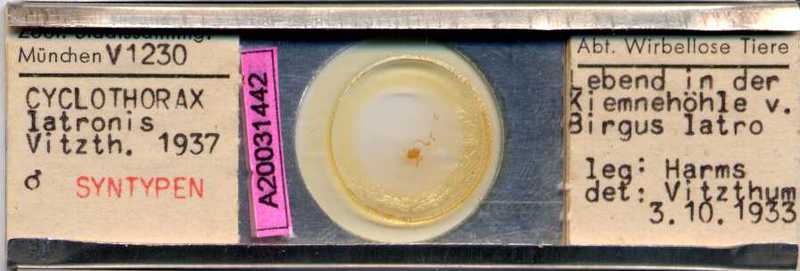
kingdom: Animalia
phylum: Arthropoda
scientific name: Arthropoda
